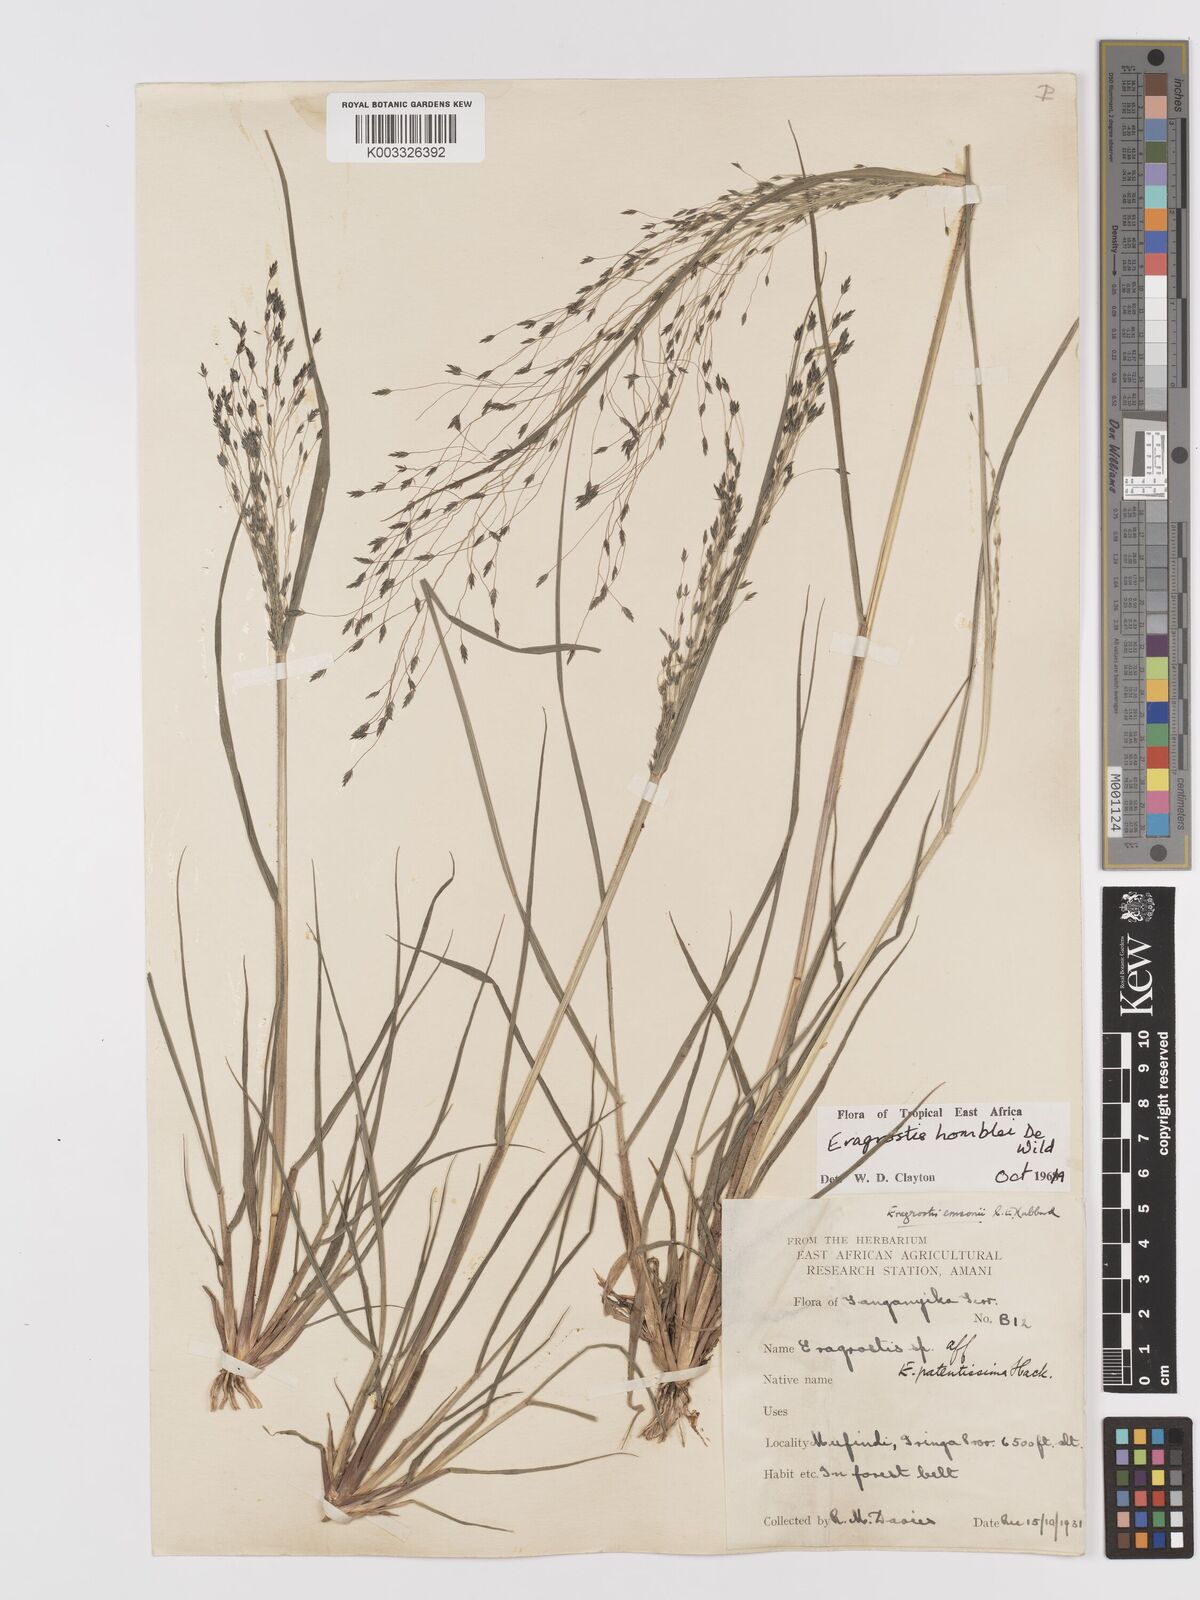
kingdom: Plantae
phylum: Tracheophyta
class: Liliopsida
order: Poales
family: Poaceae
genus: Eragrostis
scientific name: Eragrostis homblei
